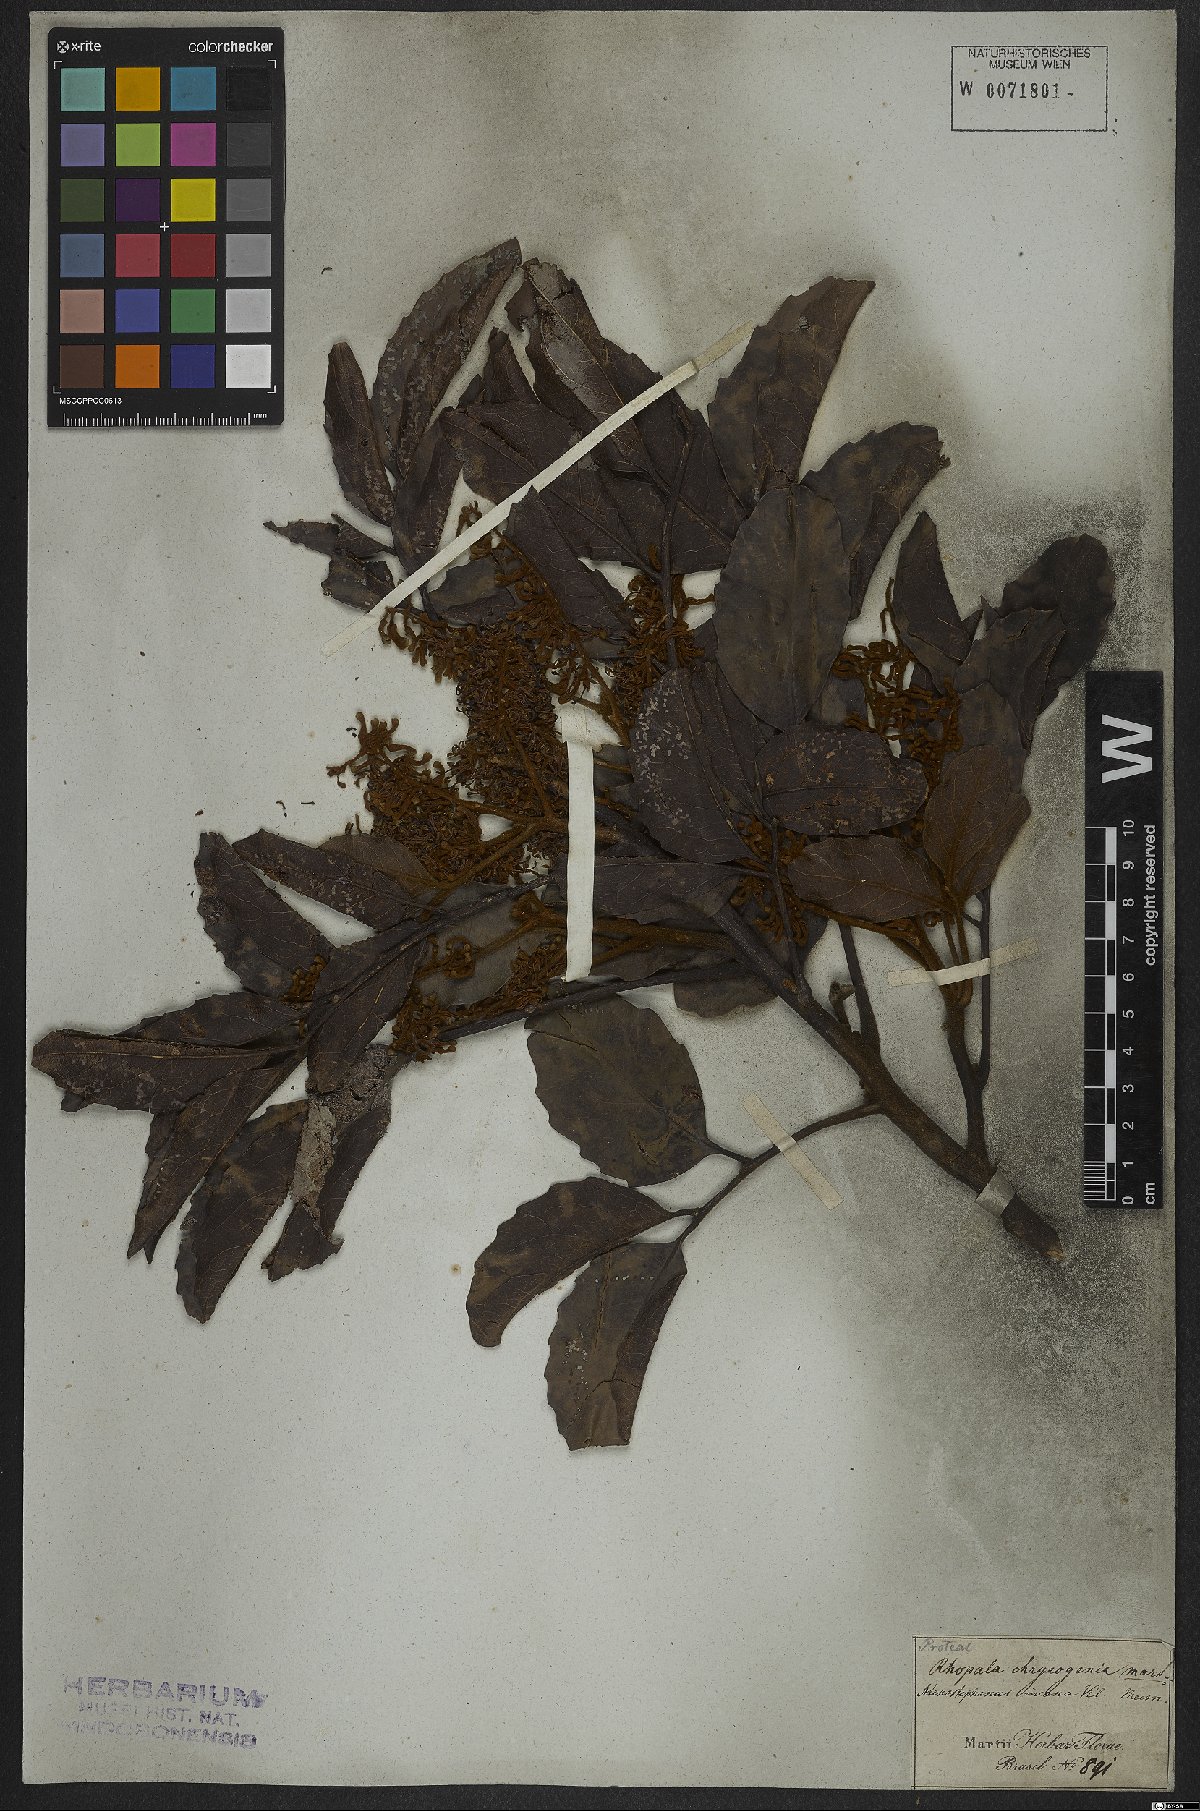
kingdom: Plantae
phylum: Tracheophyta
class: Magnoliopsida
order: Proteales
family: Proteaceae
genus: Euplassa
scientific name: Euplassa incana
